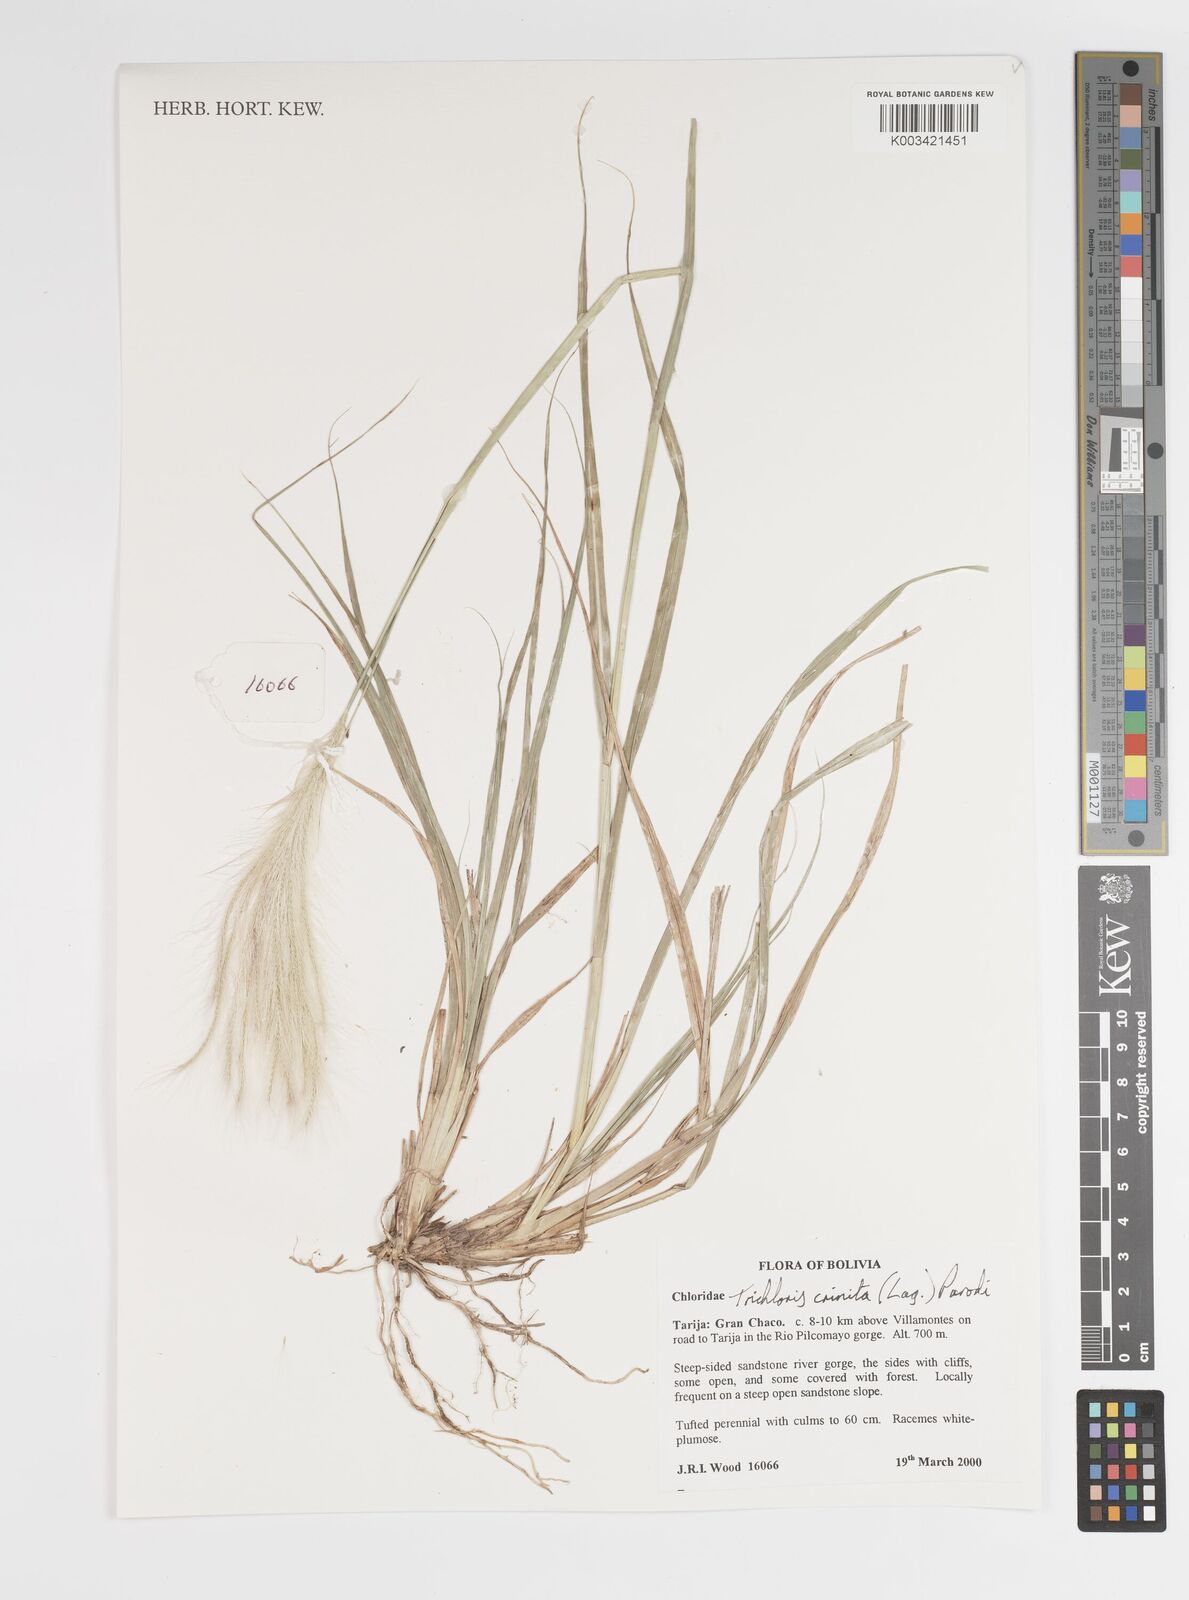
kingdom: Plantae
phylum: Tracheophyta
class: Liliopsida
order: Poales
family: Poaceae
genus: Leptochloa
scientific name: Leptochloa crinita
